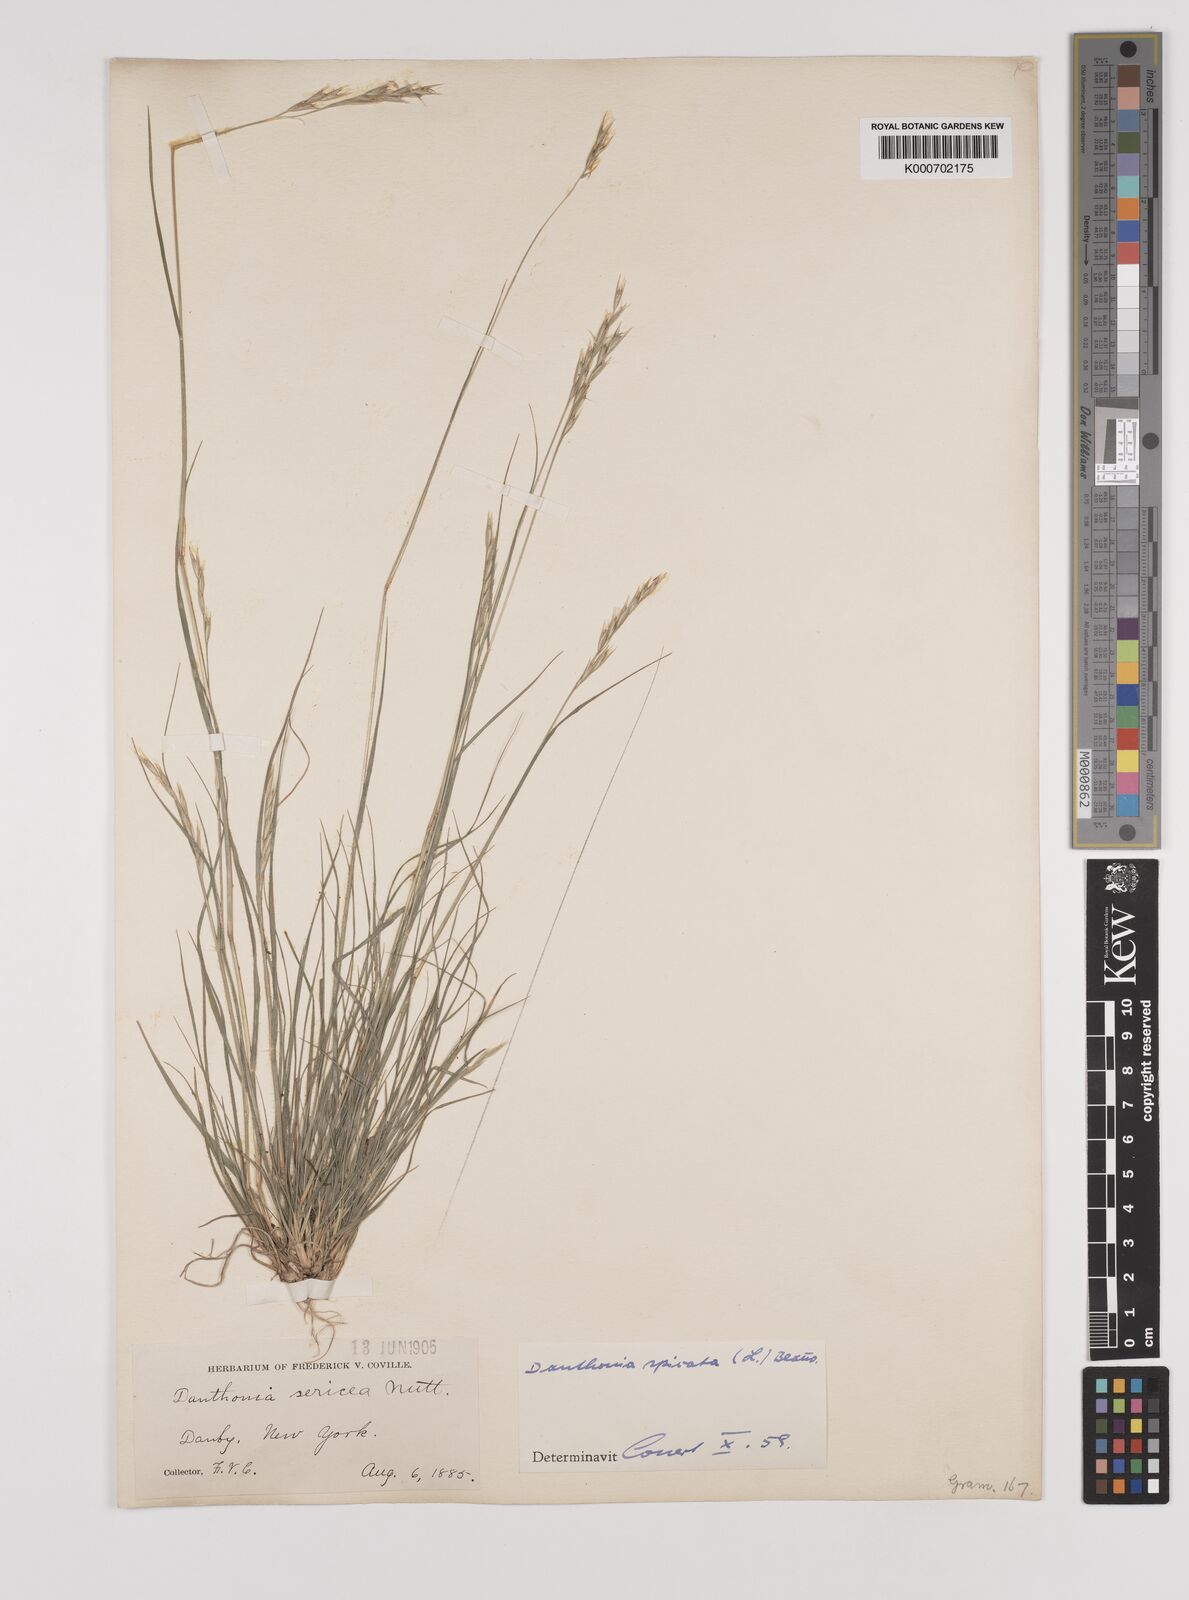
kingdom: Plantae
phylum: Tracheophyta
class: Liliopsida
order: Poales
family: Poaceae
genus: Danthonia
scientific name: Danthonia spicata
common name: Common wild oatgrass
